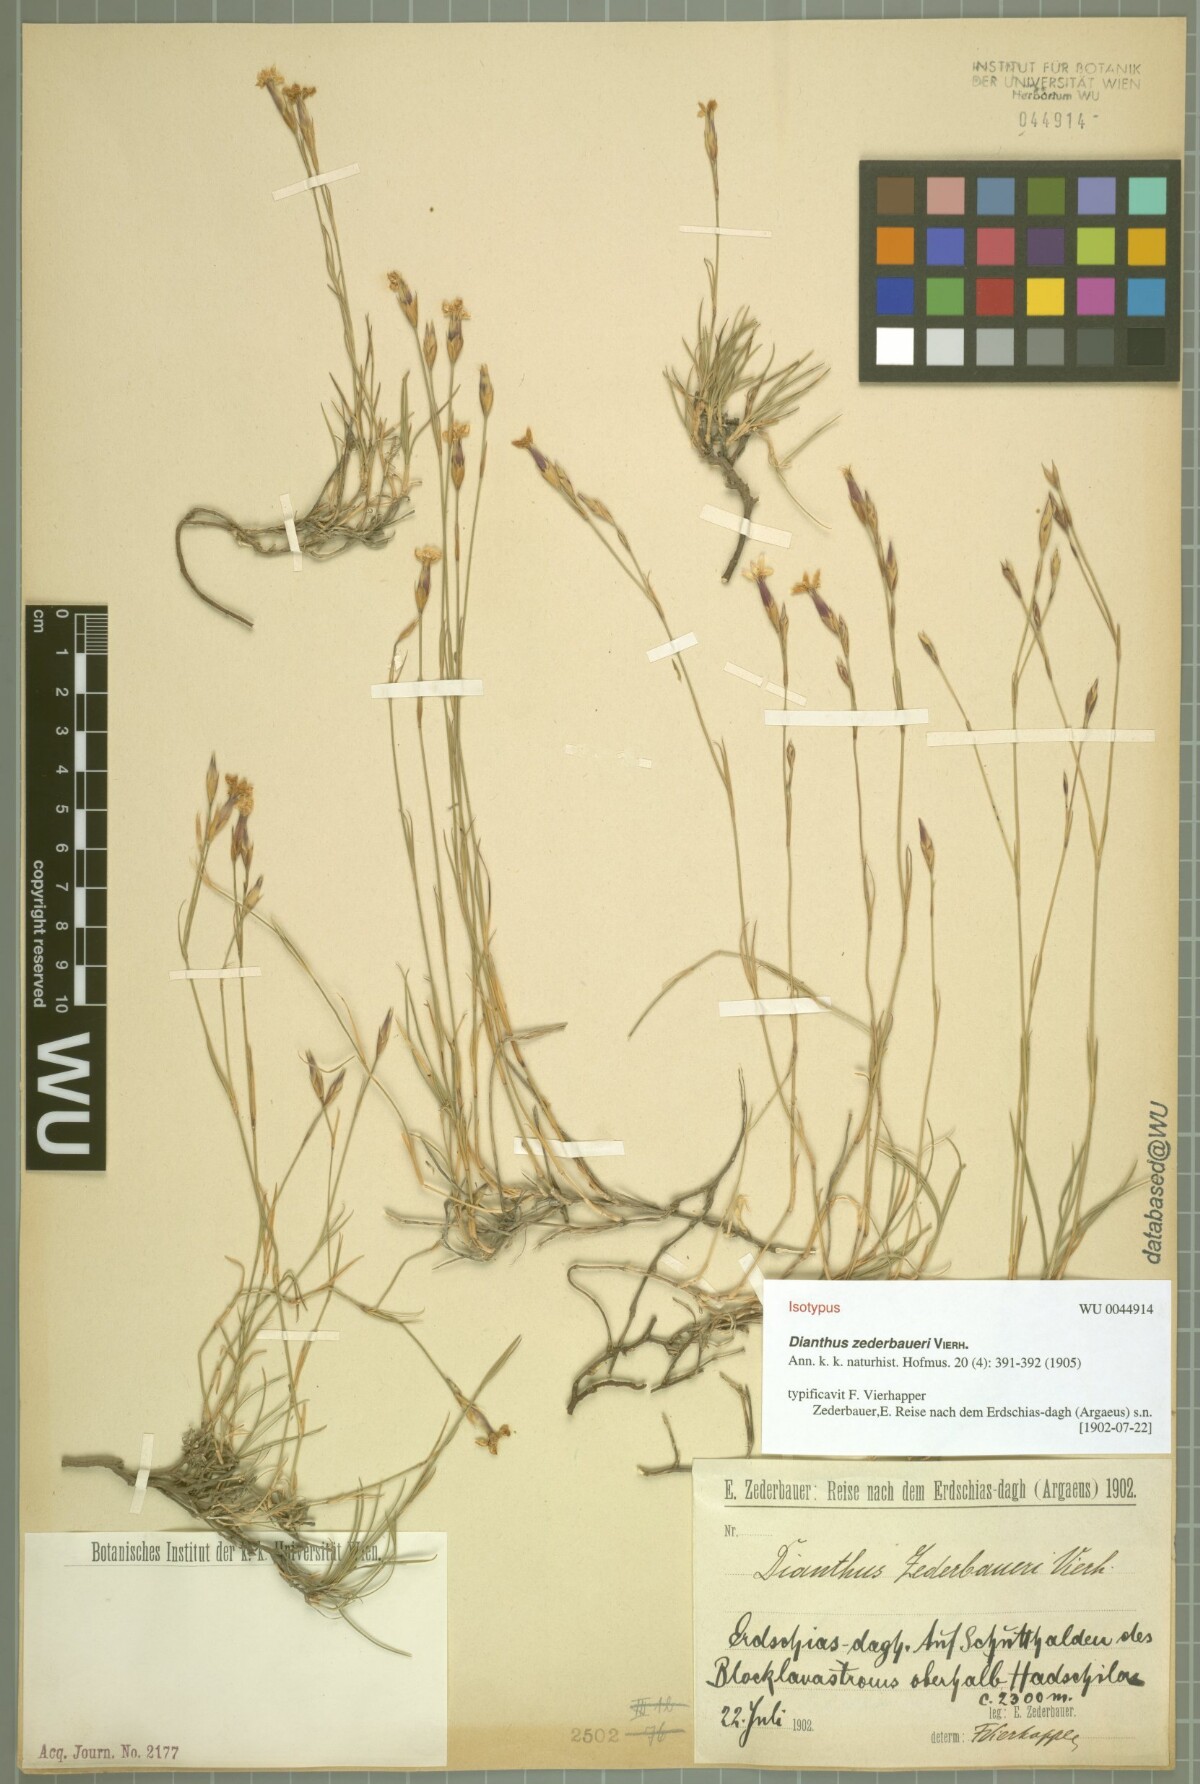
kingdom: Plantae
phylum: Tracheophyta
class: Magnoliopsida
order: Caryophyllales
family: Caryophyllaceae
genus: Dianthus
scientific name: Dianthus zederbaueri
